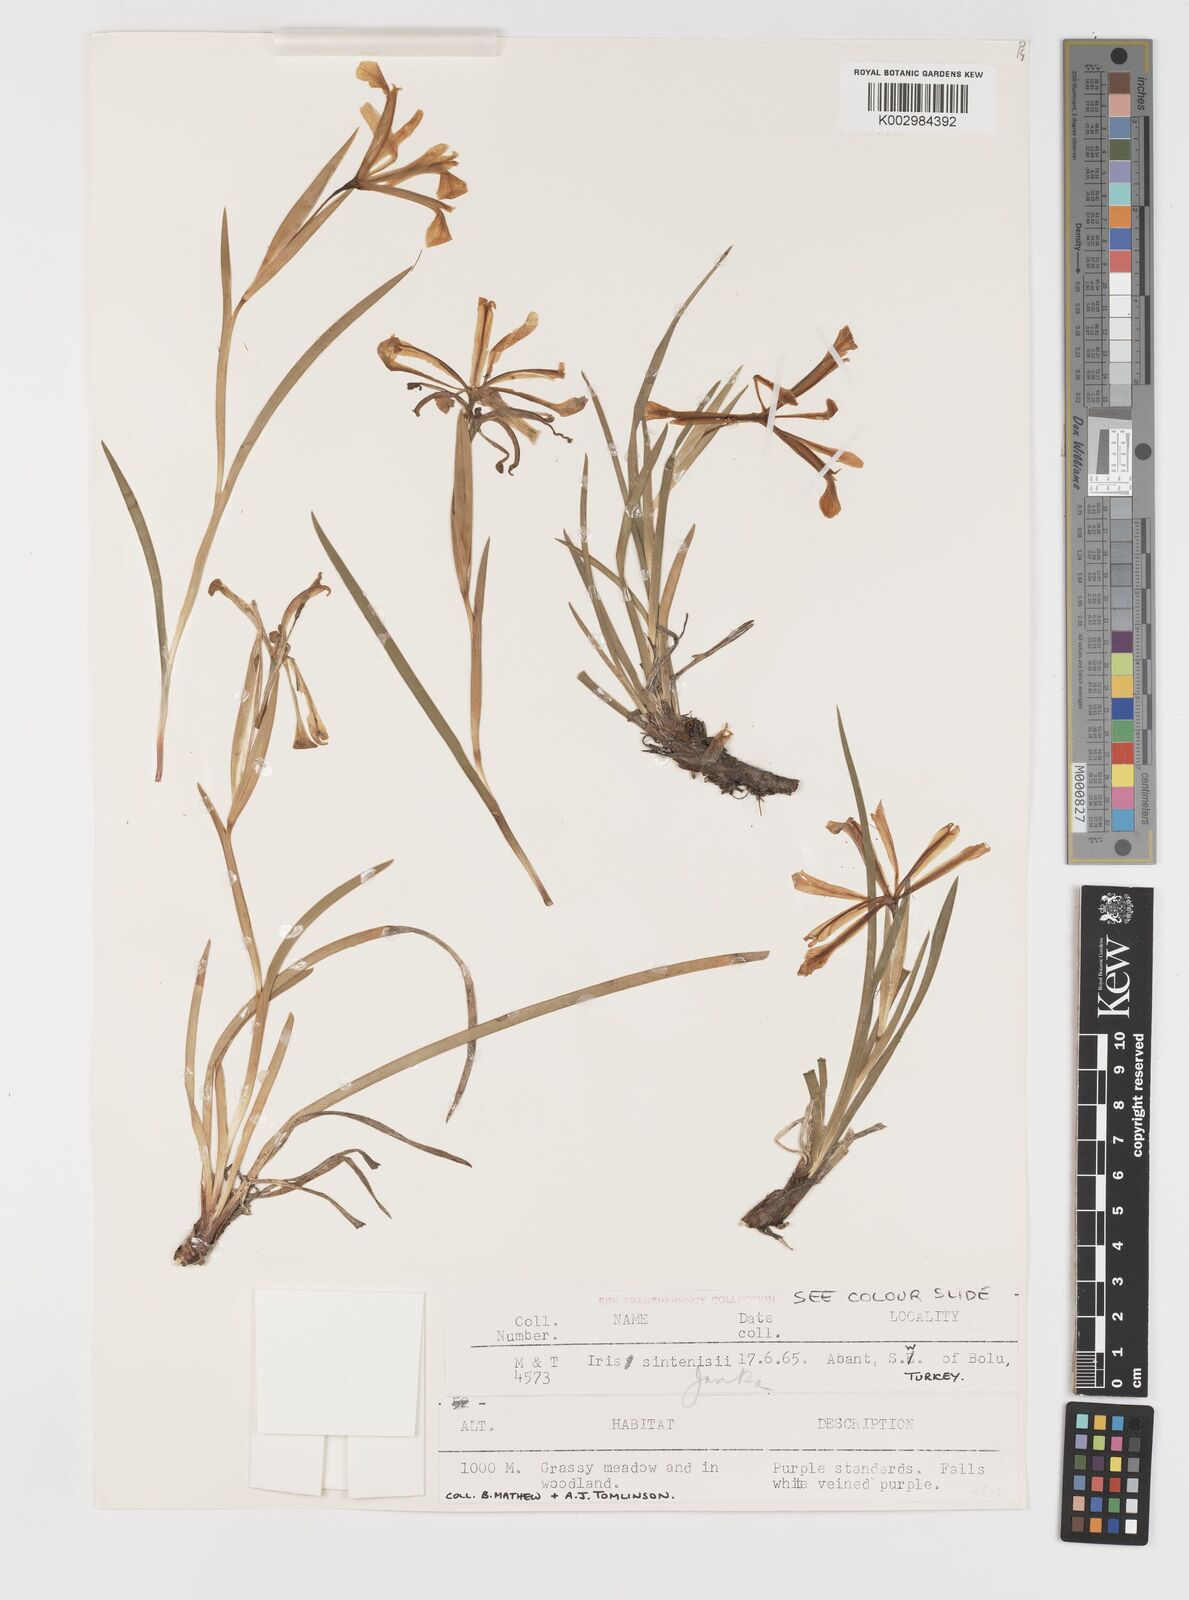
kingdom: Plantae
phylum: Tracheophyta
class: Liliopsida
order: Asparagales
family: Iridaceae
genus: Iris
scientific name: Iris sintenisii
